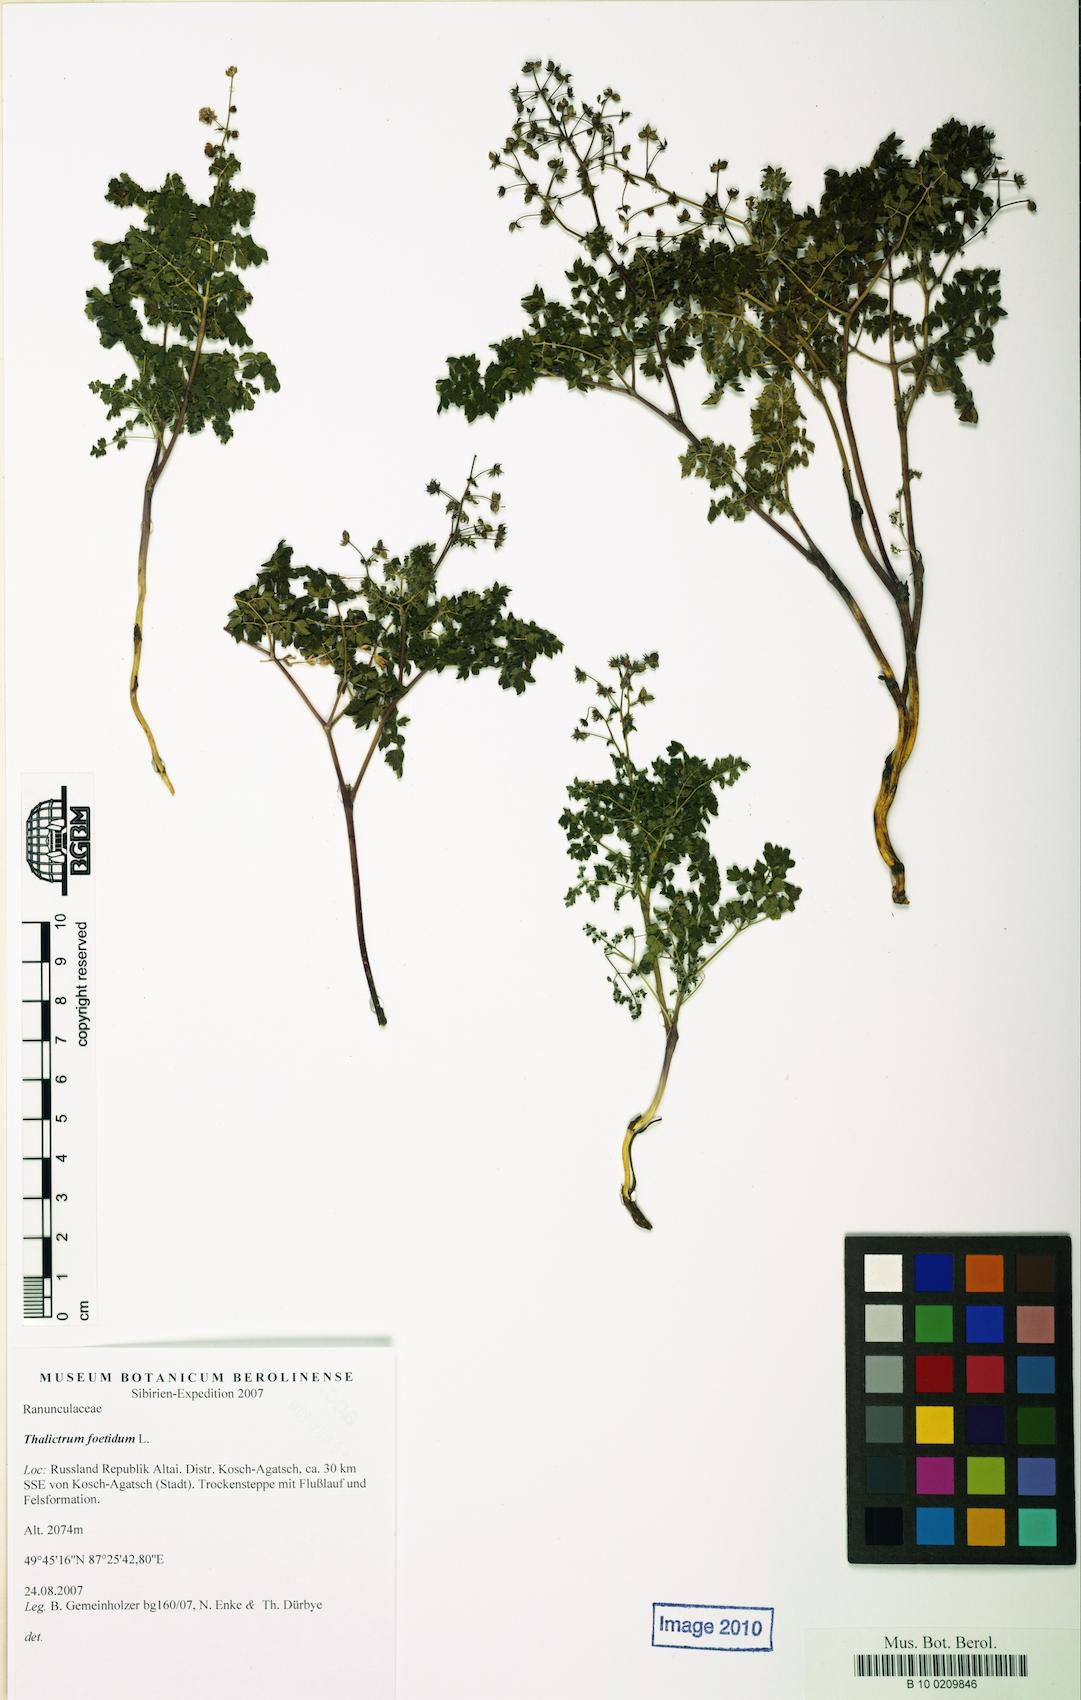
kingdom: Plantae
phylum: Tracheophyta
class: Magnoliopsida
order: Ranunculales
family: Ranunculaceae
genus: Thalictrum
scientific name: Thalictrum foetidum
